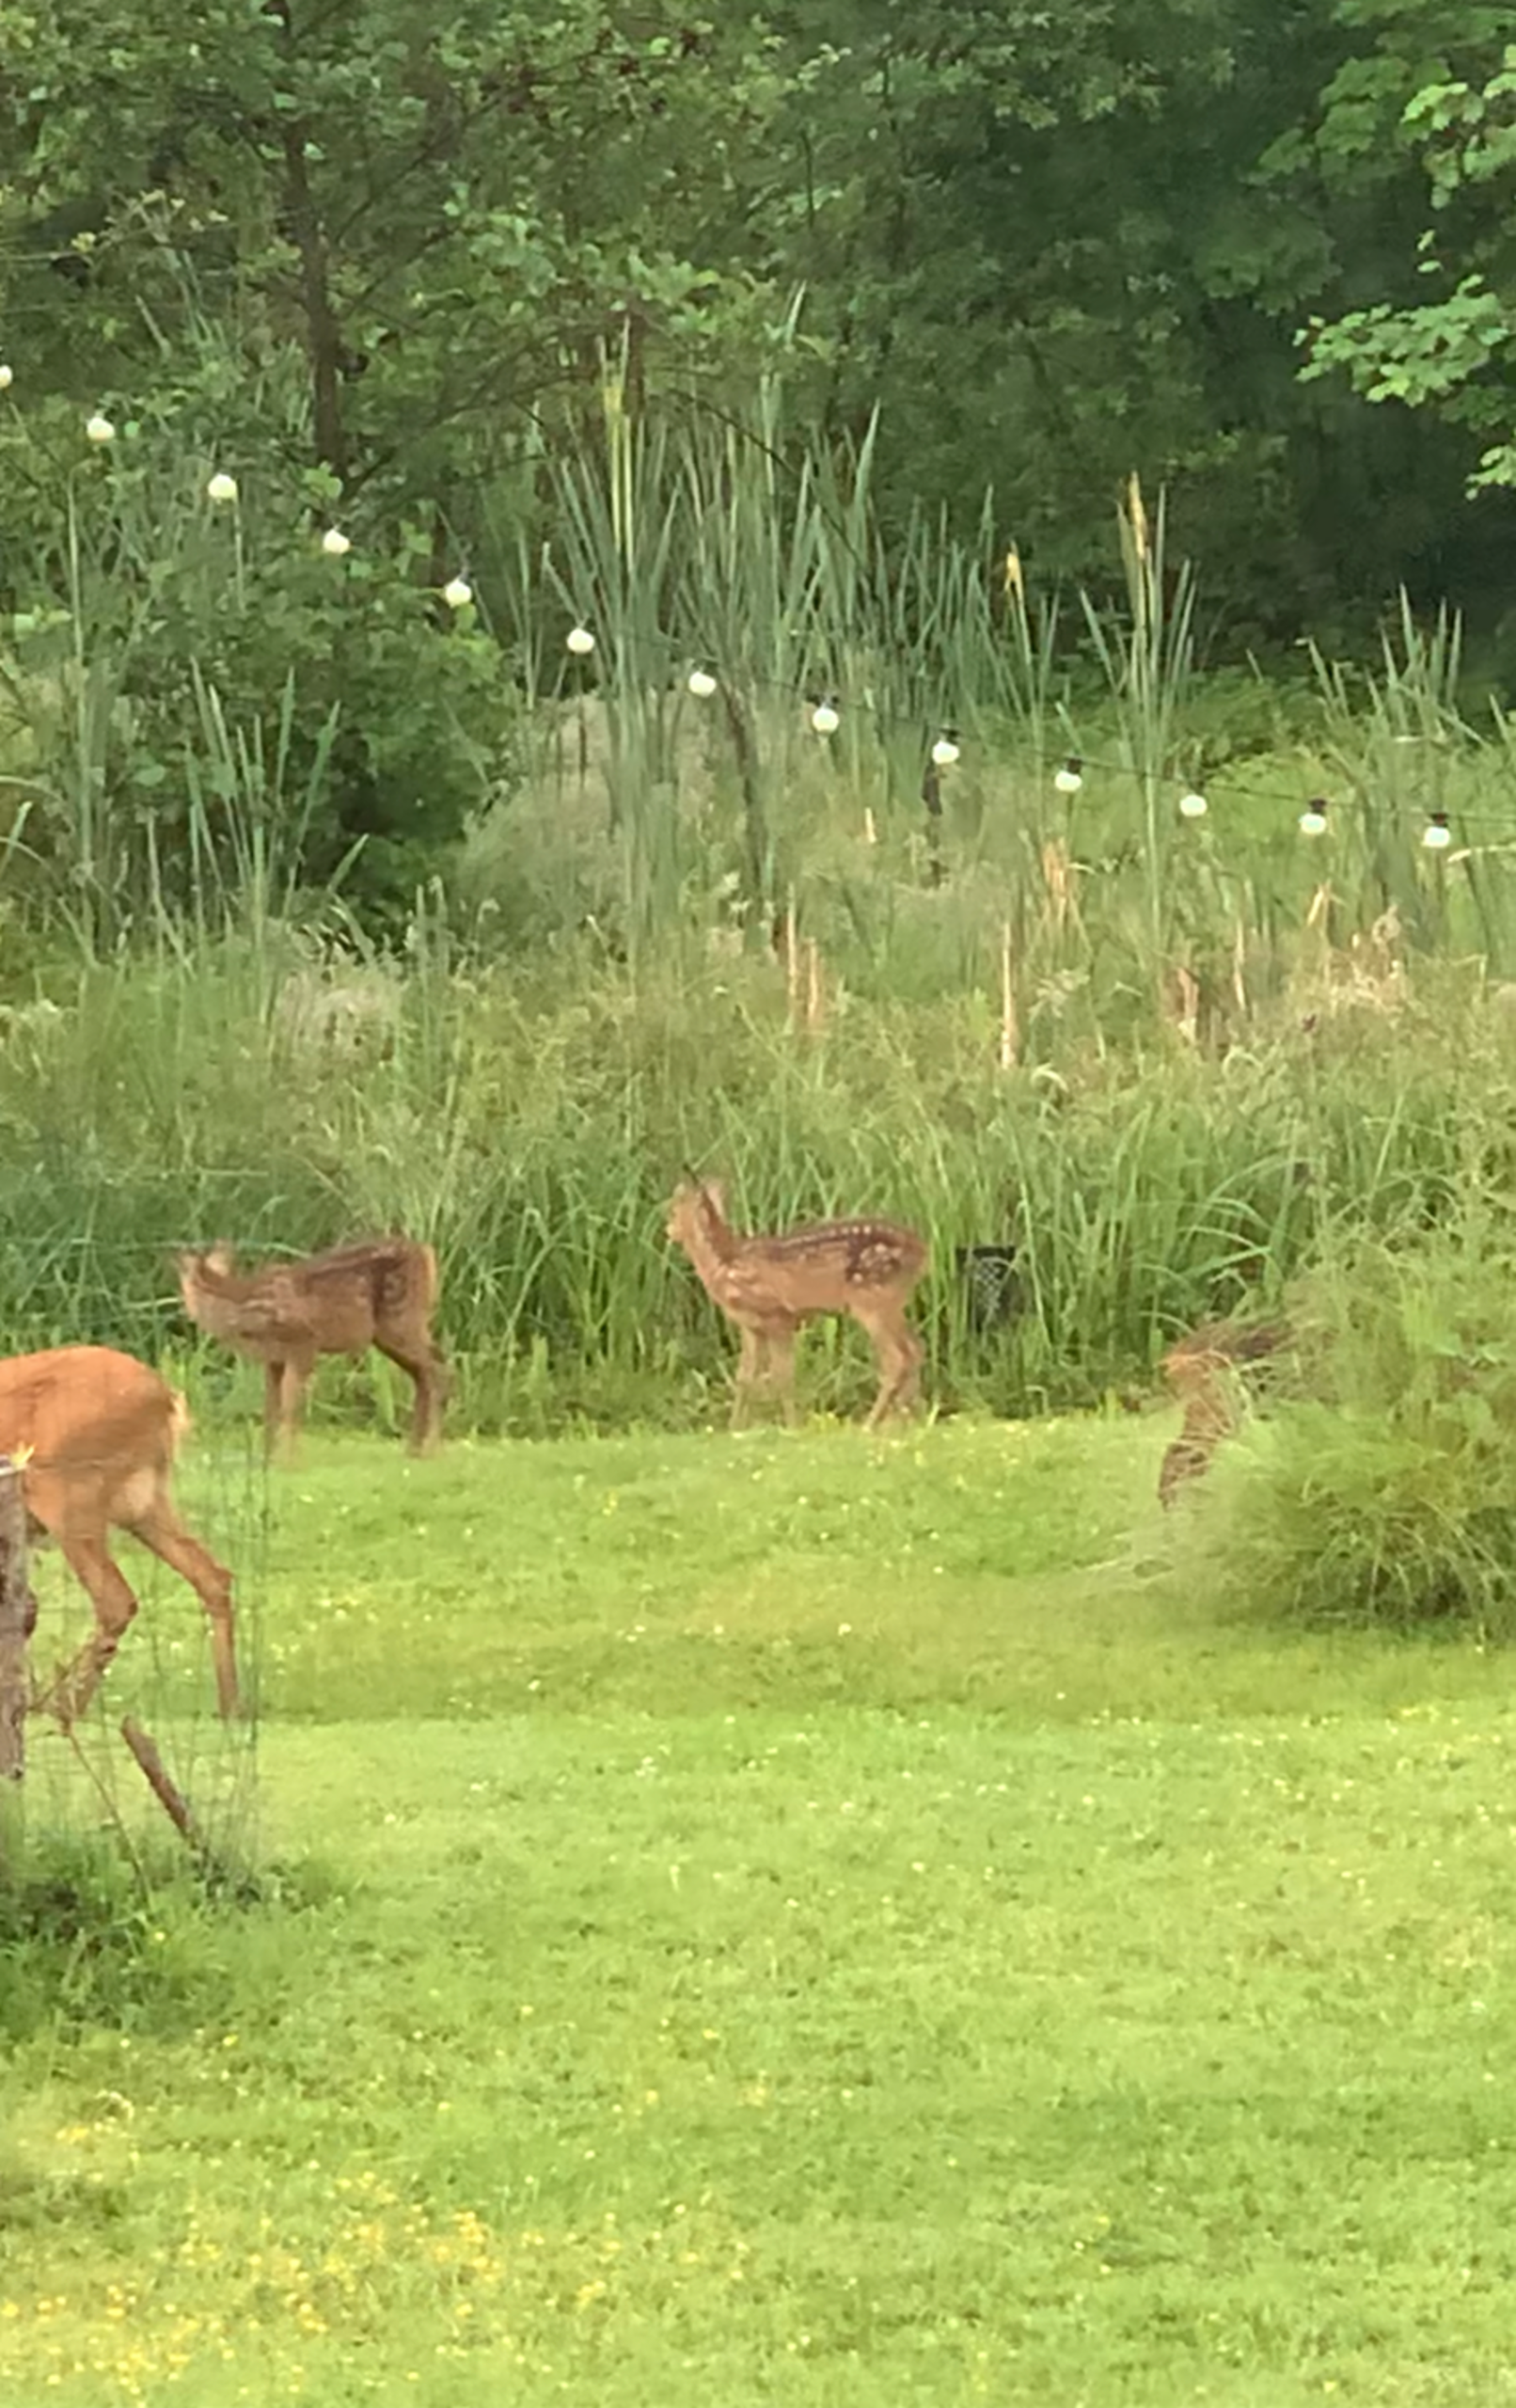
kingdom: Animalia
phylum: Chordata
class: Mammalia
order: Artiodactyla
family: Cervidae
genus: Capreolus
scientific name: Capreolus capreolus
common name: Rådyr
